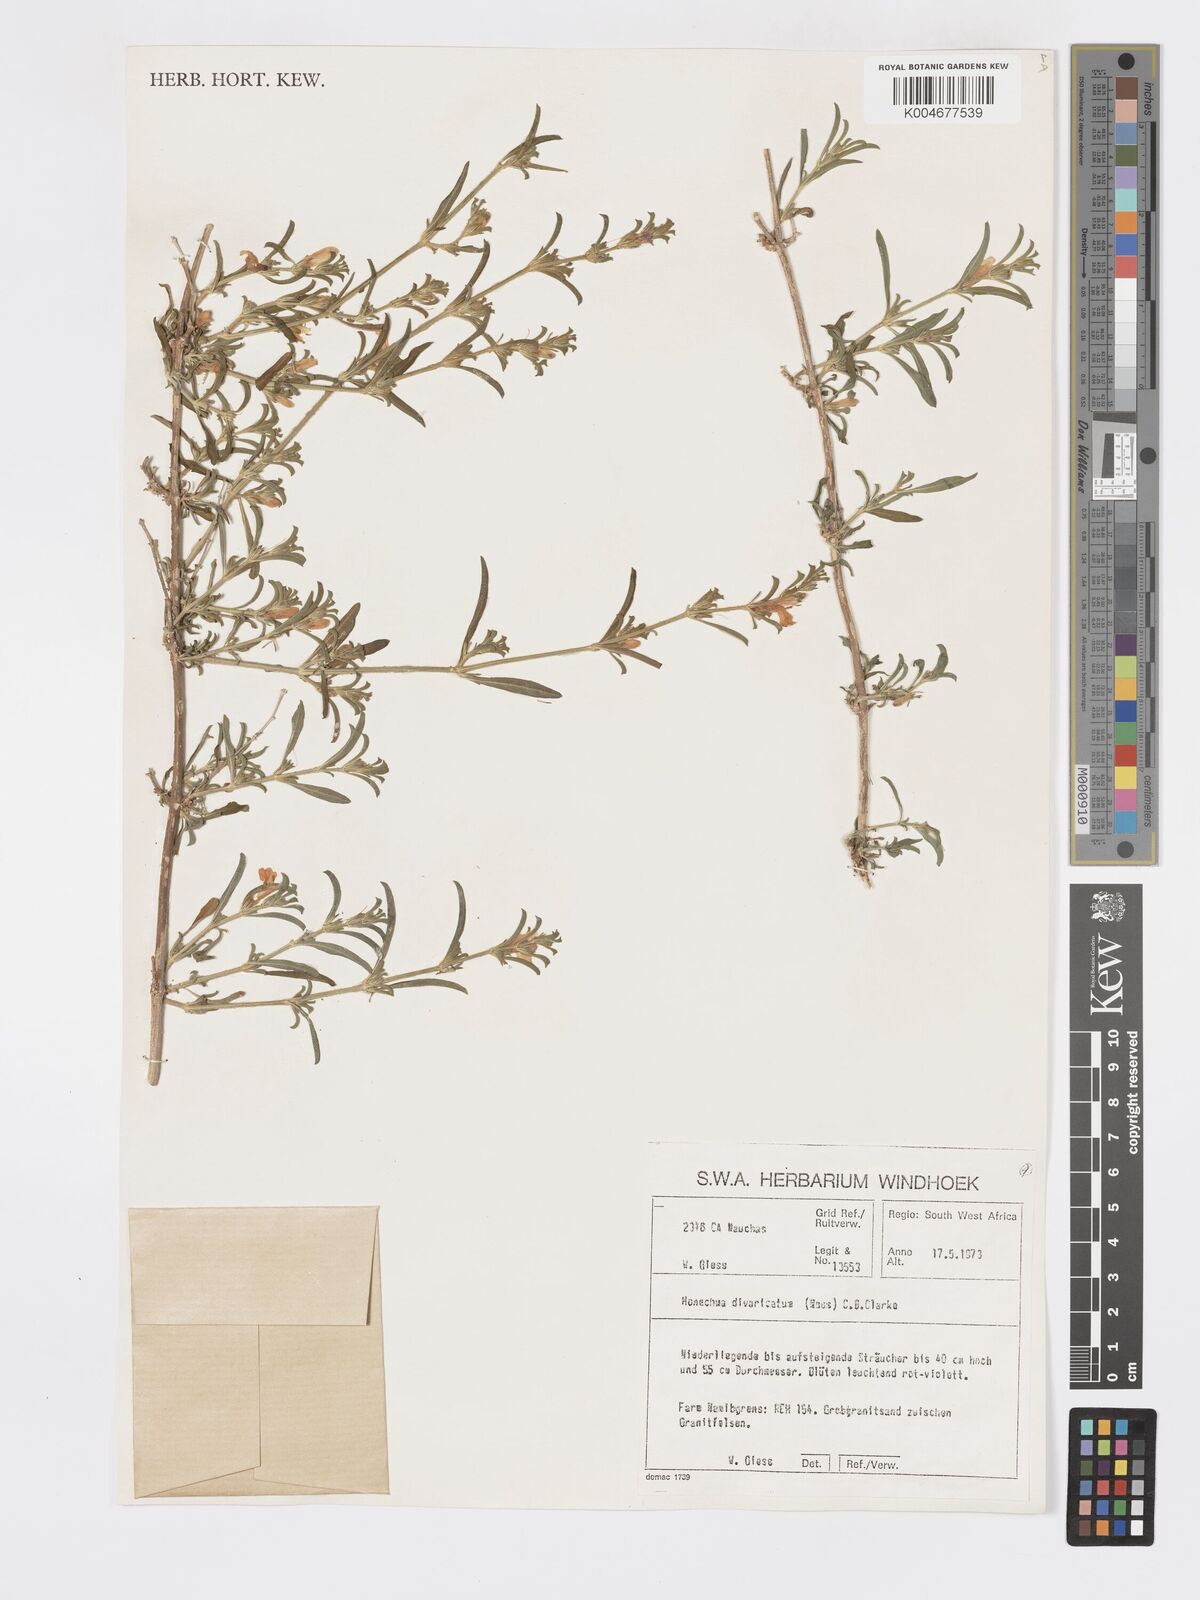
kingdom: Plantae
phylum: Tracheophyta
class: Magnoliopsida
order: Lamiales
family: Acanthaceae
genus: Pogonospermum
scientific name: Pogonospermum
